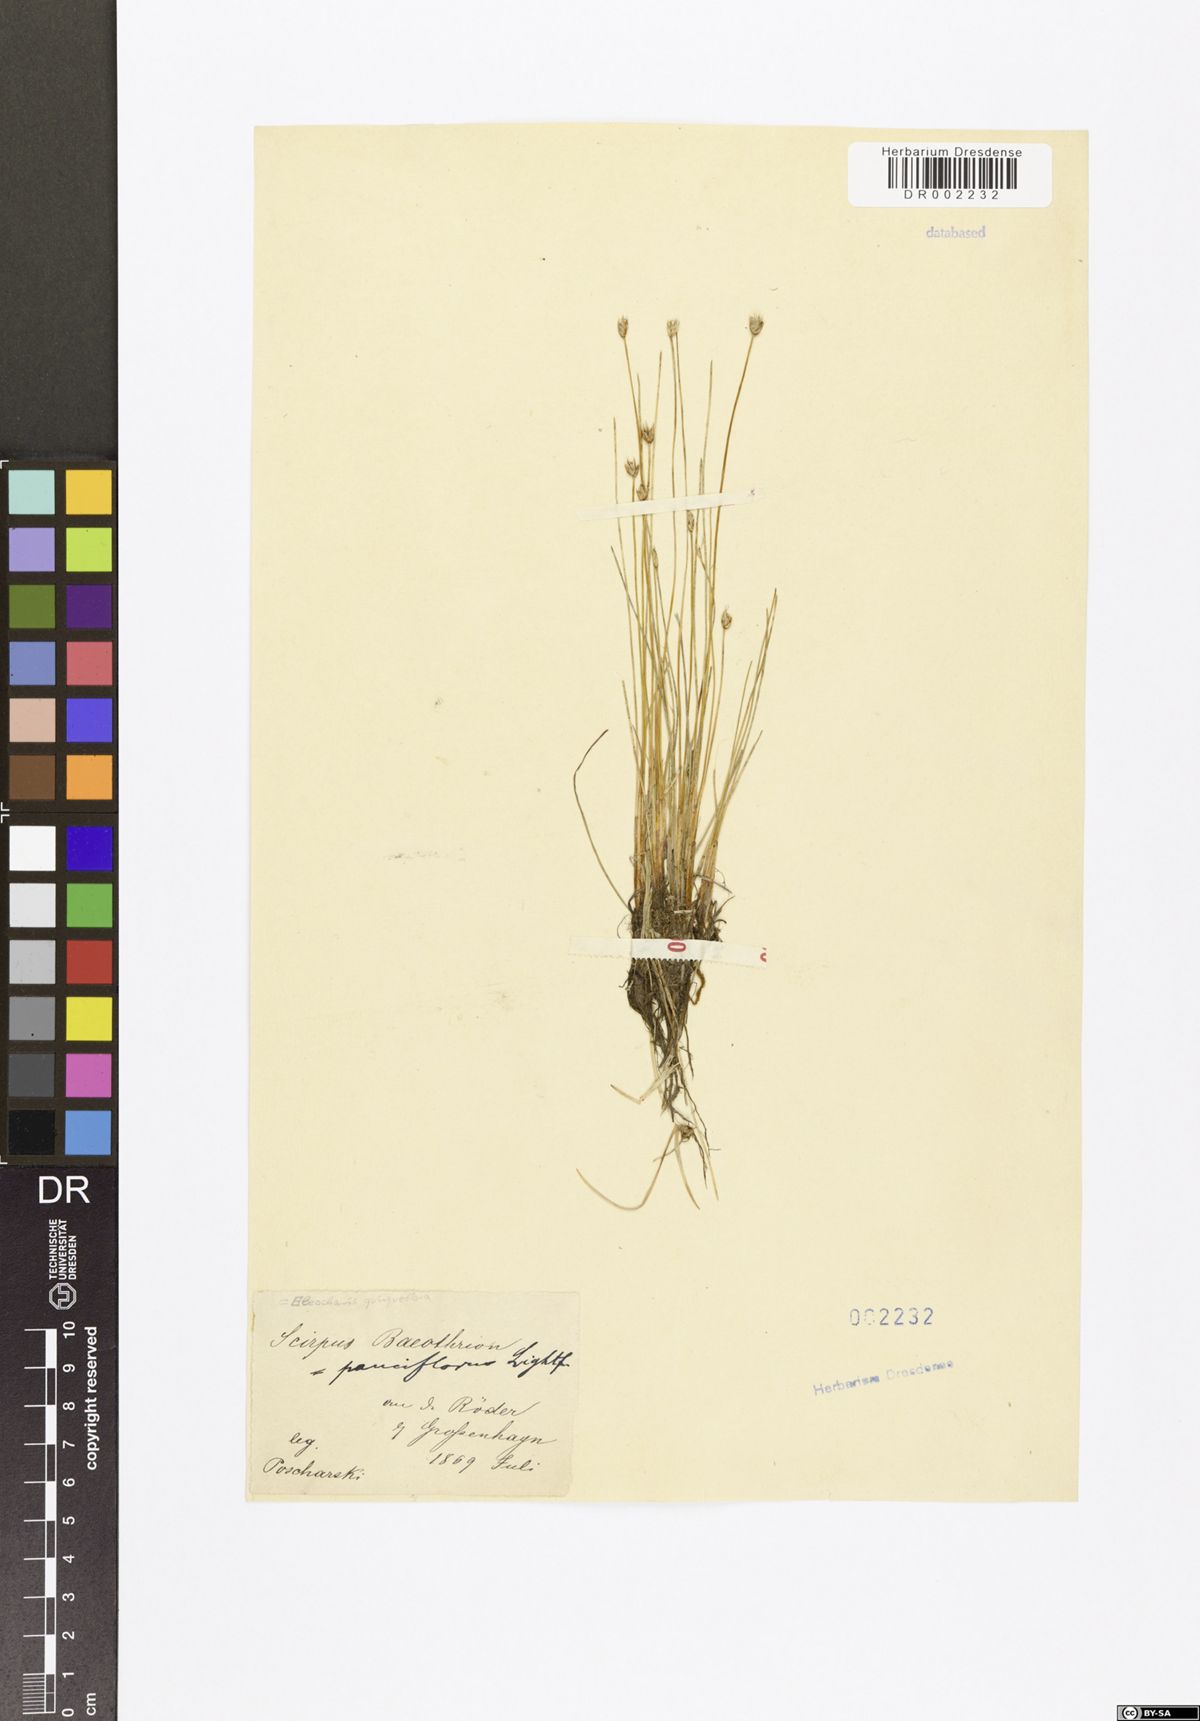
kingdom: Plantae
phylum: Tracheophyta
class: Liliopsida
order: Poales
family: Cyperaceae
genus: Eleocharis
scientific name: Eleocharis quinqueflora
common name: Few-flowered spike-rush
